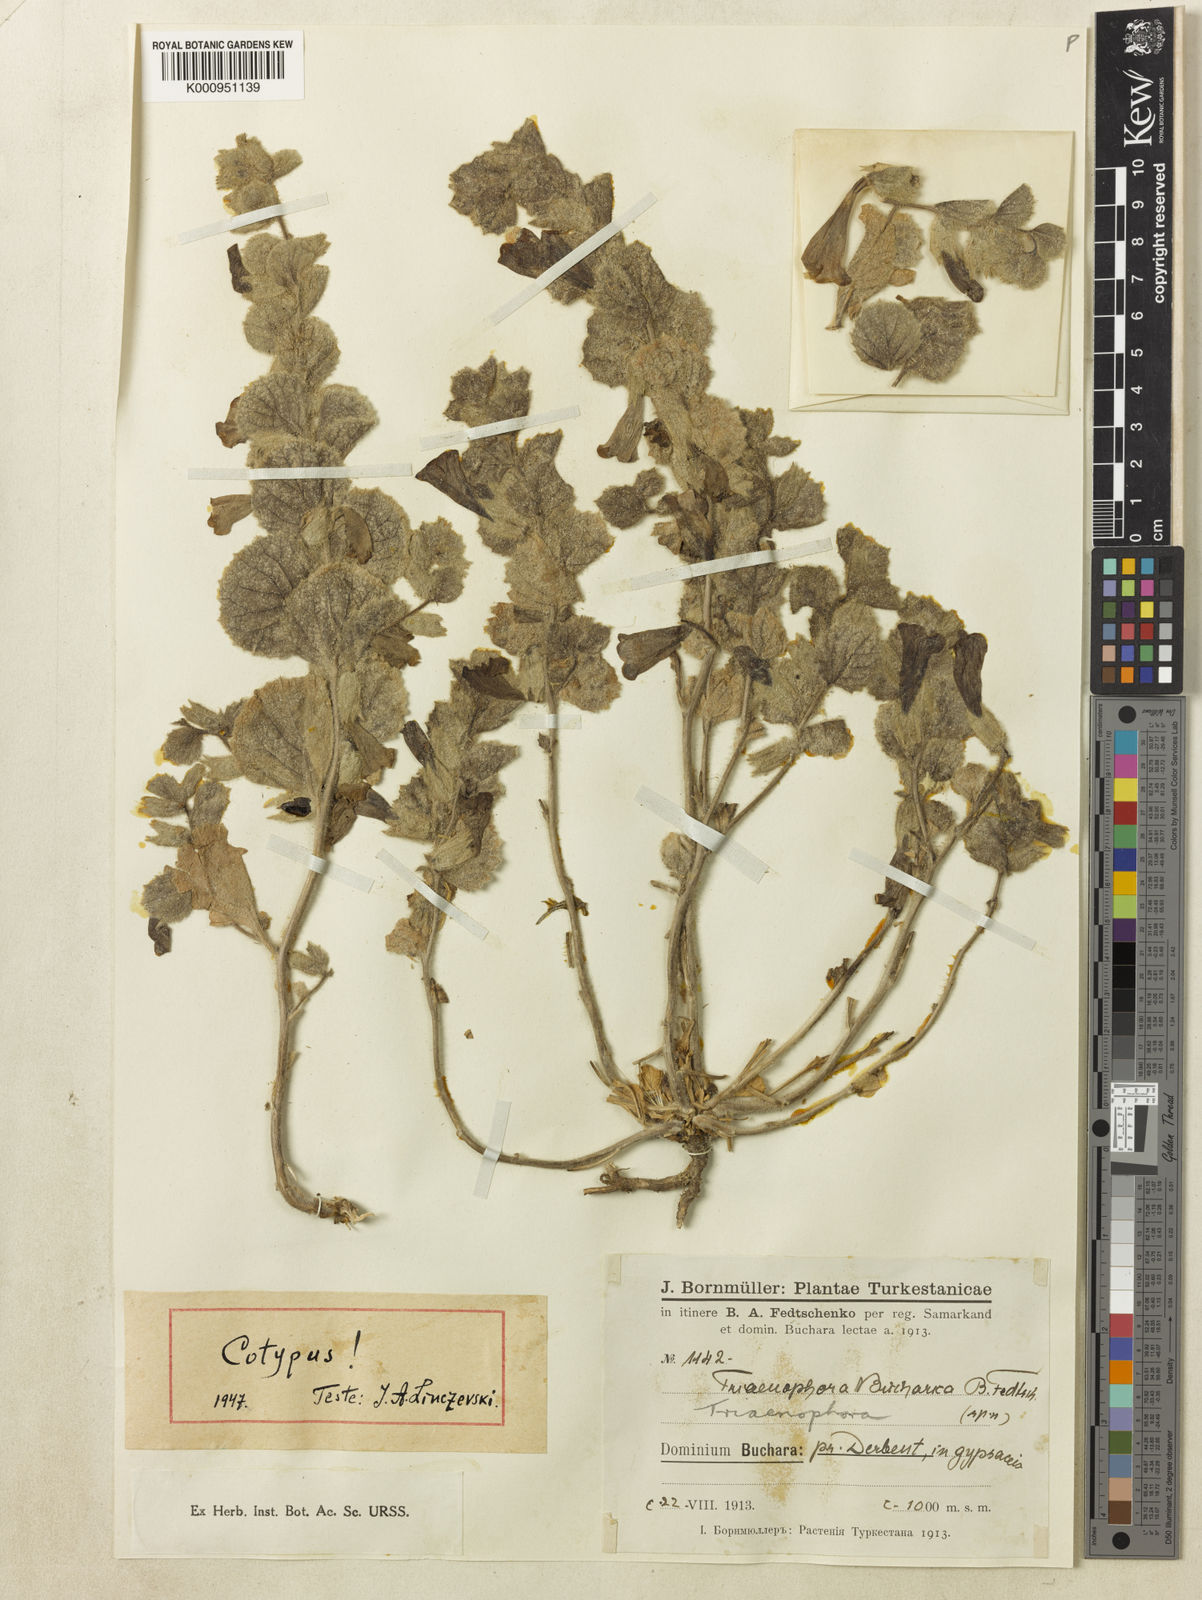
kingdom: Plantae
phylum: Tracheophyta
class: Magnoliopsida
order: Lamiales
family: Rehmanniaceae
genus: Triaenophora
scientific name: Triaenophora
